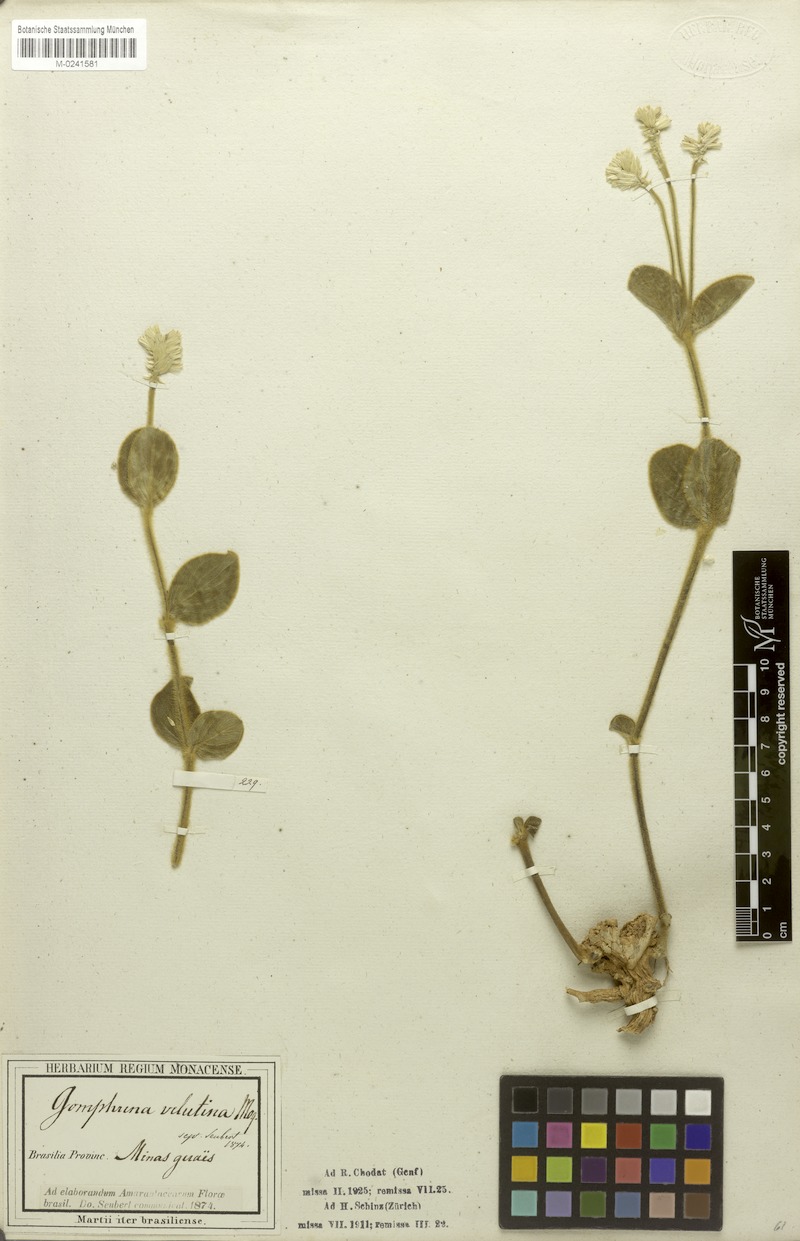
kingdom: Plantae
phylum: Tracheophyta
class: Magnoliopsida
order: Caryophyllales
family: Amaranthaceae
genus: Pfaffia
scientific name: Pfaffia velutina
